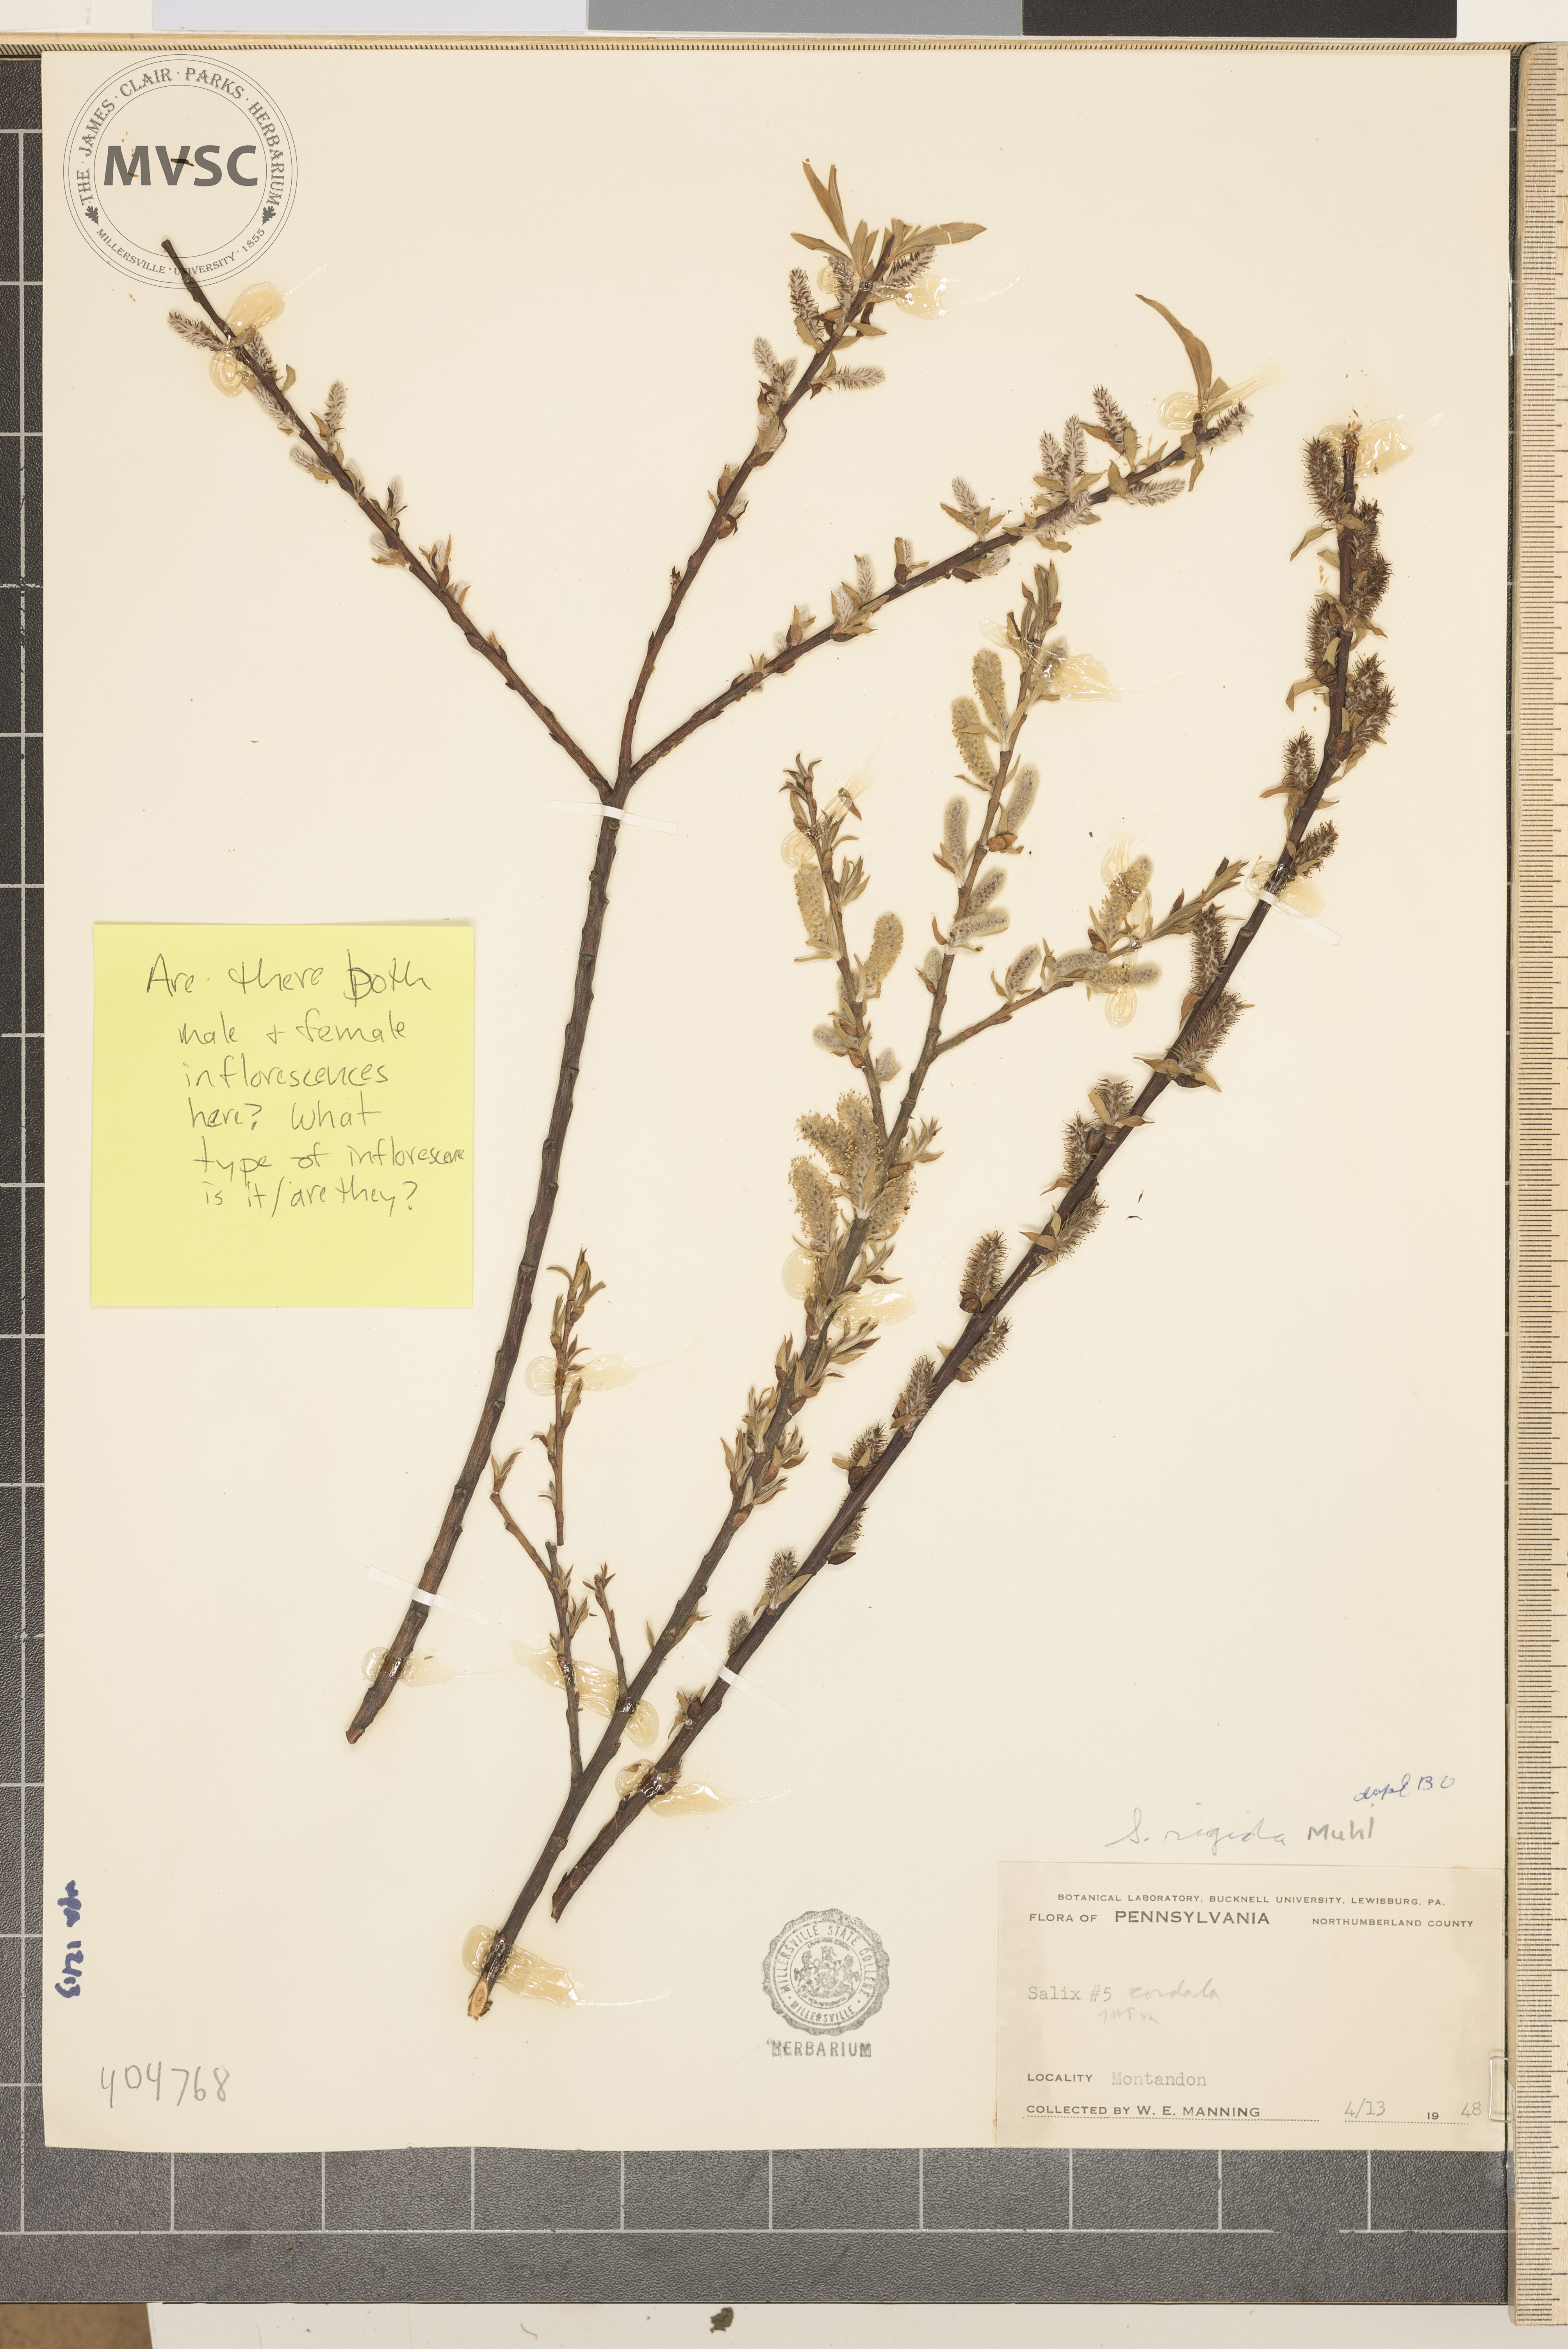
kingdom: Plantae
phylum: Tracheophyta
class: Magnoliopsida
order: Malpighiales
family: Salicaceae
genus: Salix
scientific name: Salix eriocephala
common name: Heart-leaved willow
